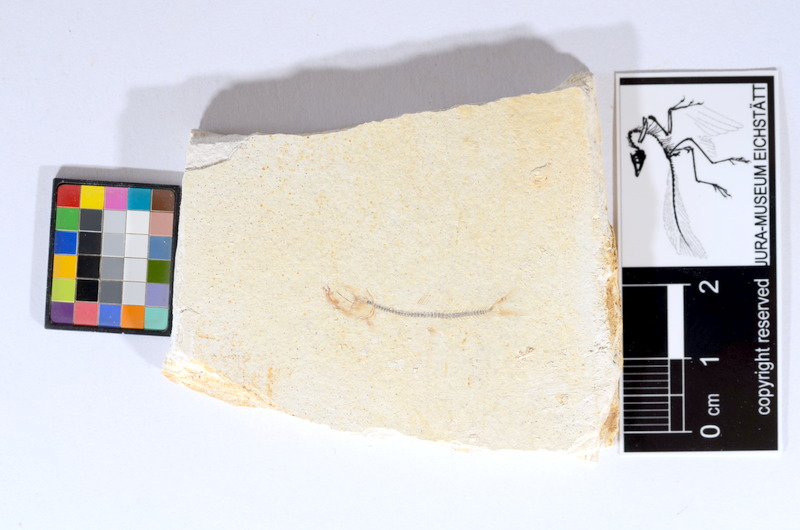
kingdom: Animalia
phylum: Chordata
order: Salmoniformes
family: Orthogonikleithridae
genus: Orthogonikleithrus
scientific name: Orthogonikleithrus hoelli
